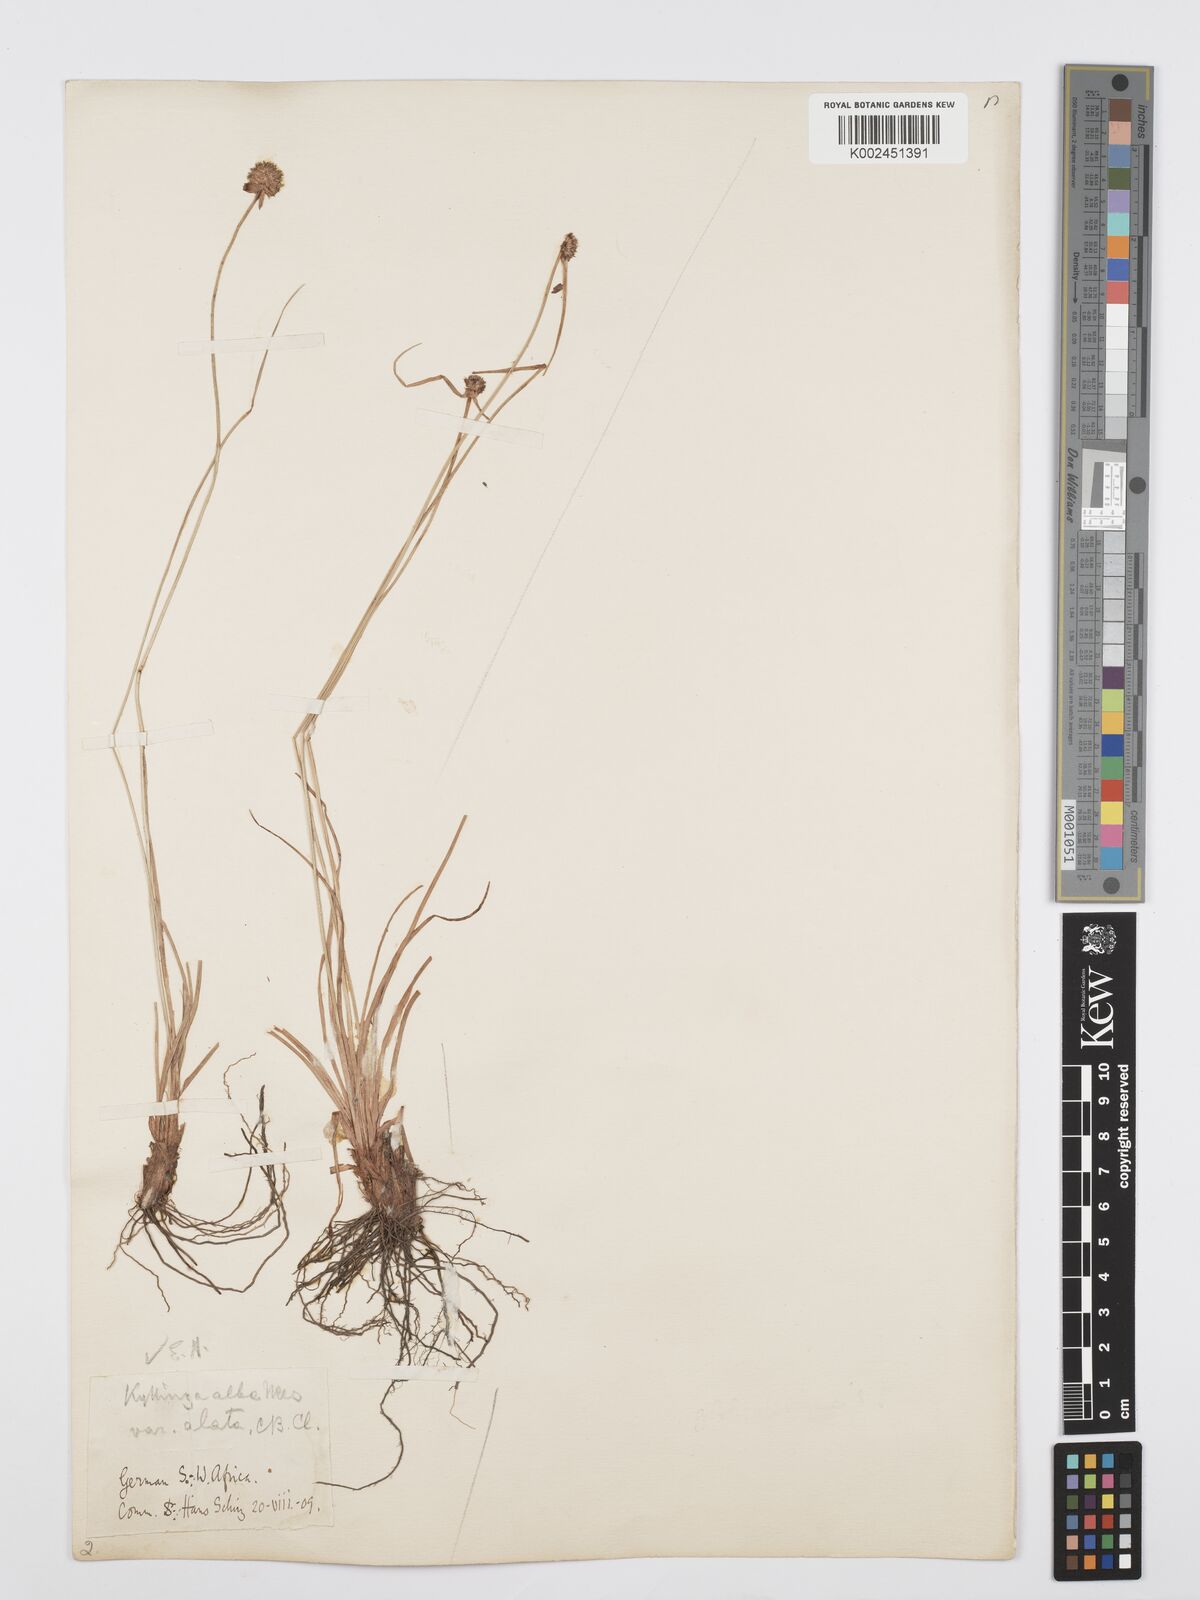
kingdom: Plantae
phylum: Tracheophyta
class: Liliopsida
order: Poales
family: Cyperaceae
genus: Cyperus
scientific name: Cyperus alatus
